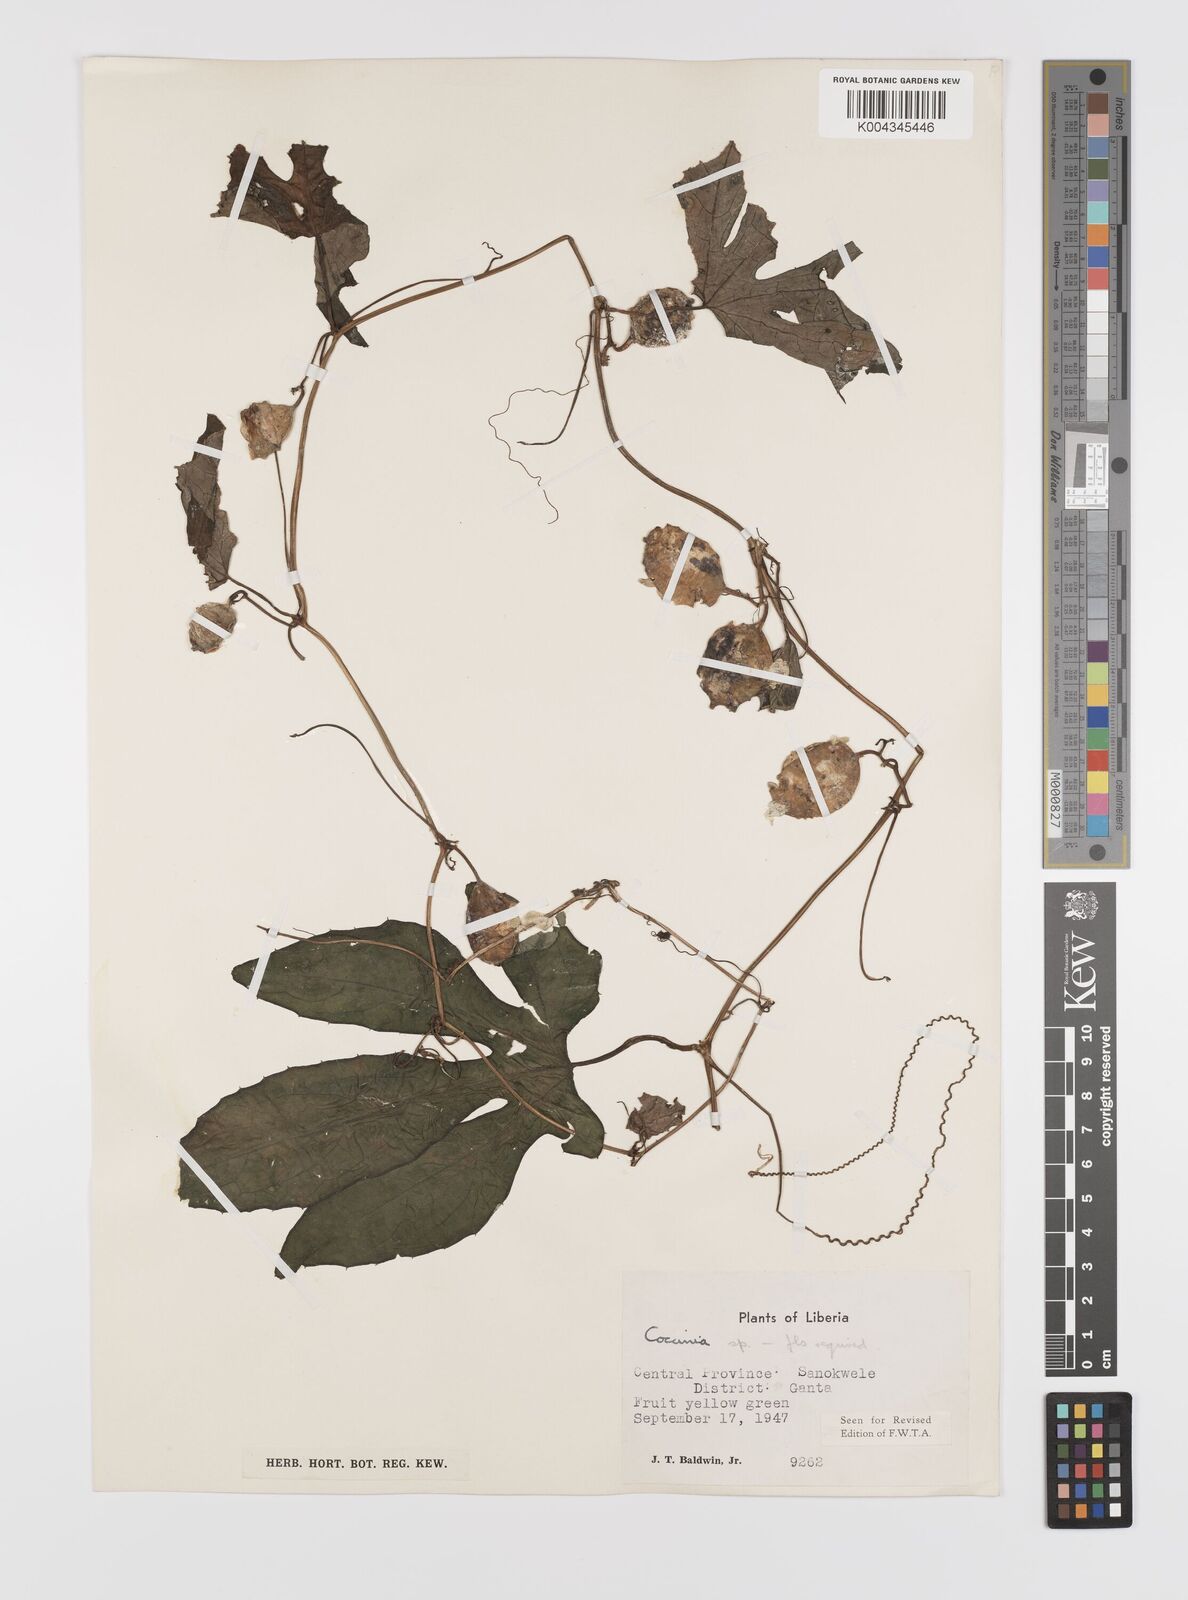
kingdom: Plantae
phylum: Tracheophyta
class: Magnoliopsida
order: Cucurbitales
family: Cucurbitaceae
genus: Coccinia
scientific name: Coccinia keayana
